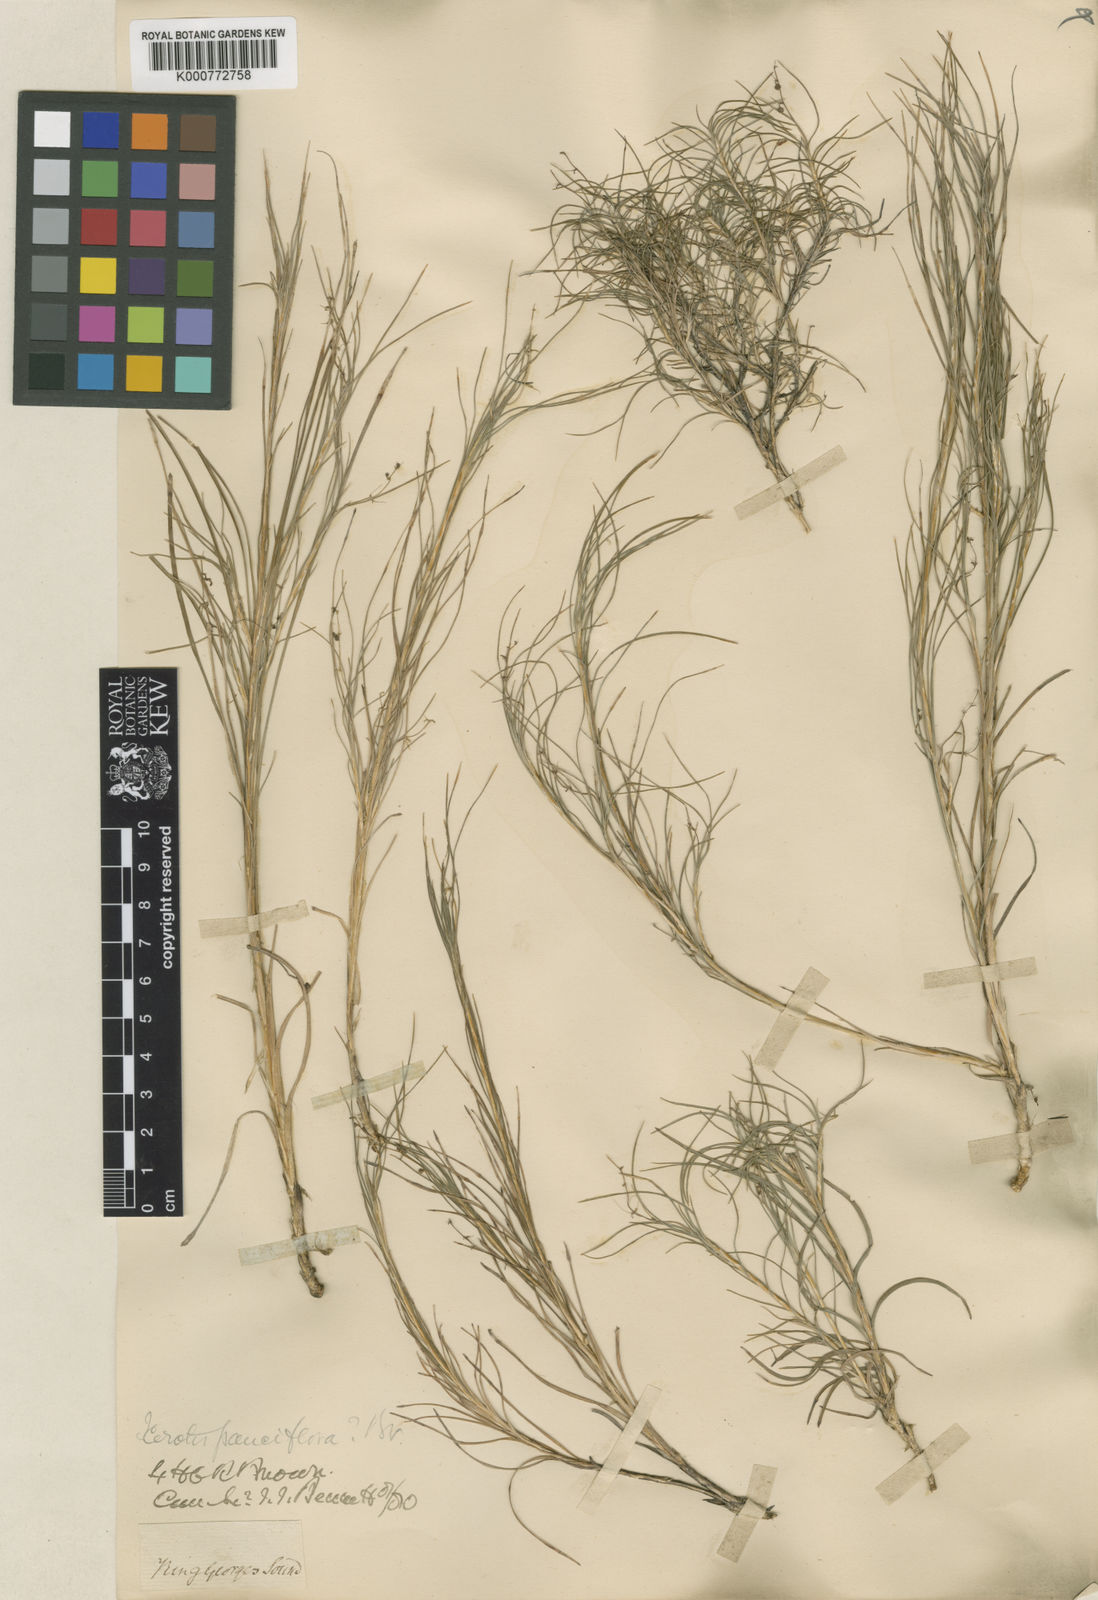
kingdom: Plantae
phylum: Tracheophyta
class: Liliopsida
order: Asparagales
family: Asparagaceae
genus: Lomandra
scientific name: Lomandra pauciflora
